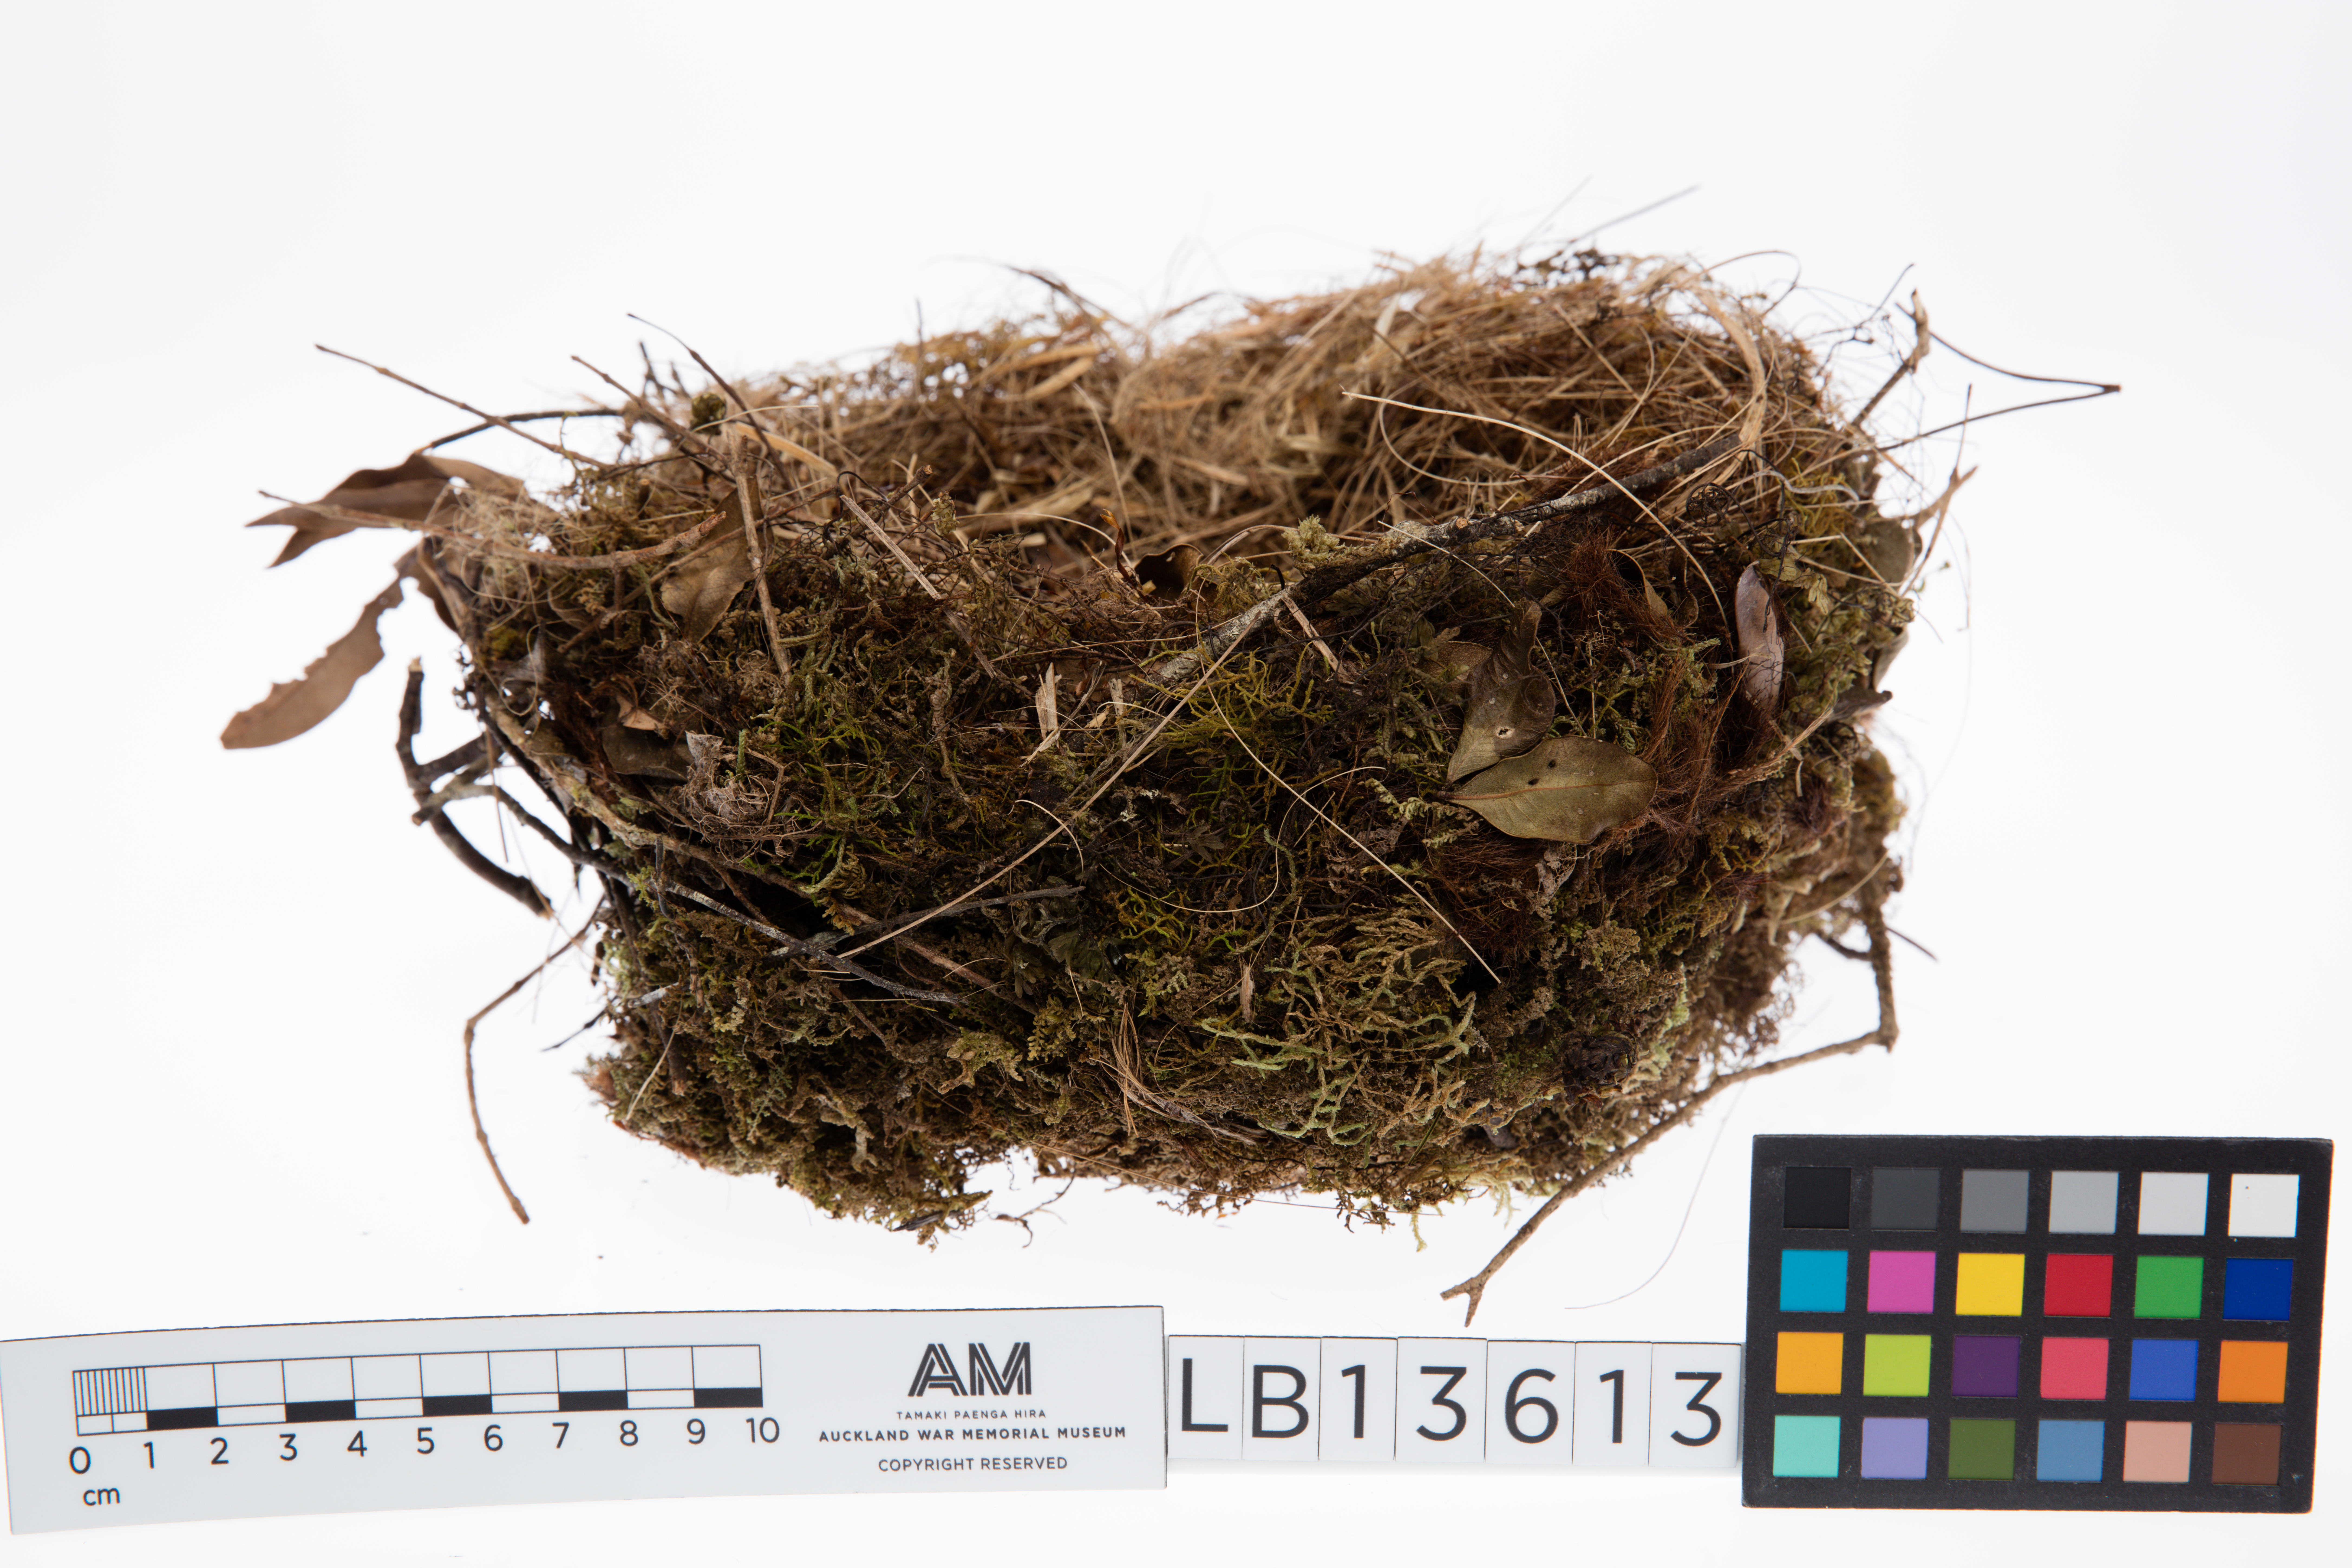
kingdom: Animalia
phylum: Chordata
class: Aves
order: Passeriformes
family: Callaeatidae
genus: Callaeas
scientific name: Callaeas cinereus
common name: South island kokako
